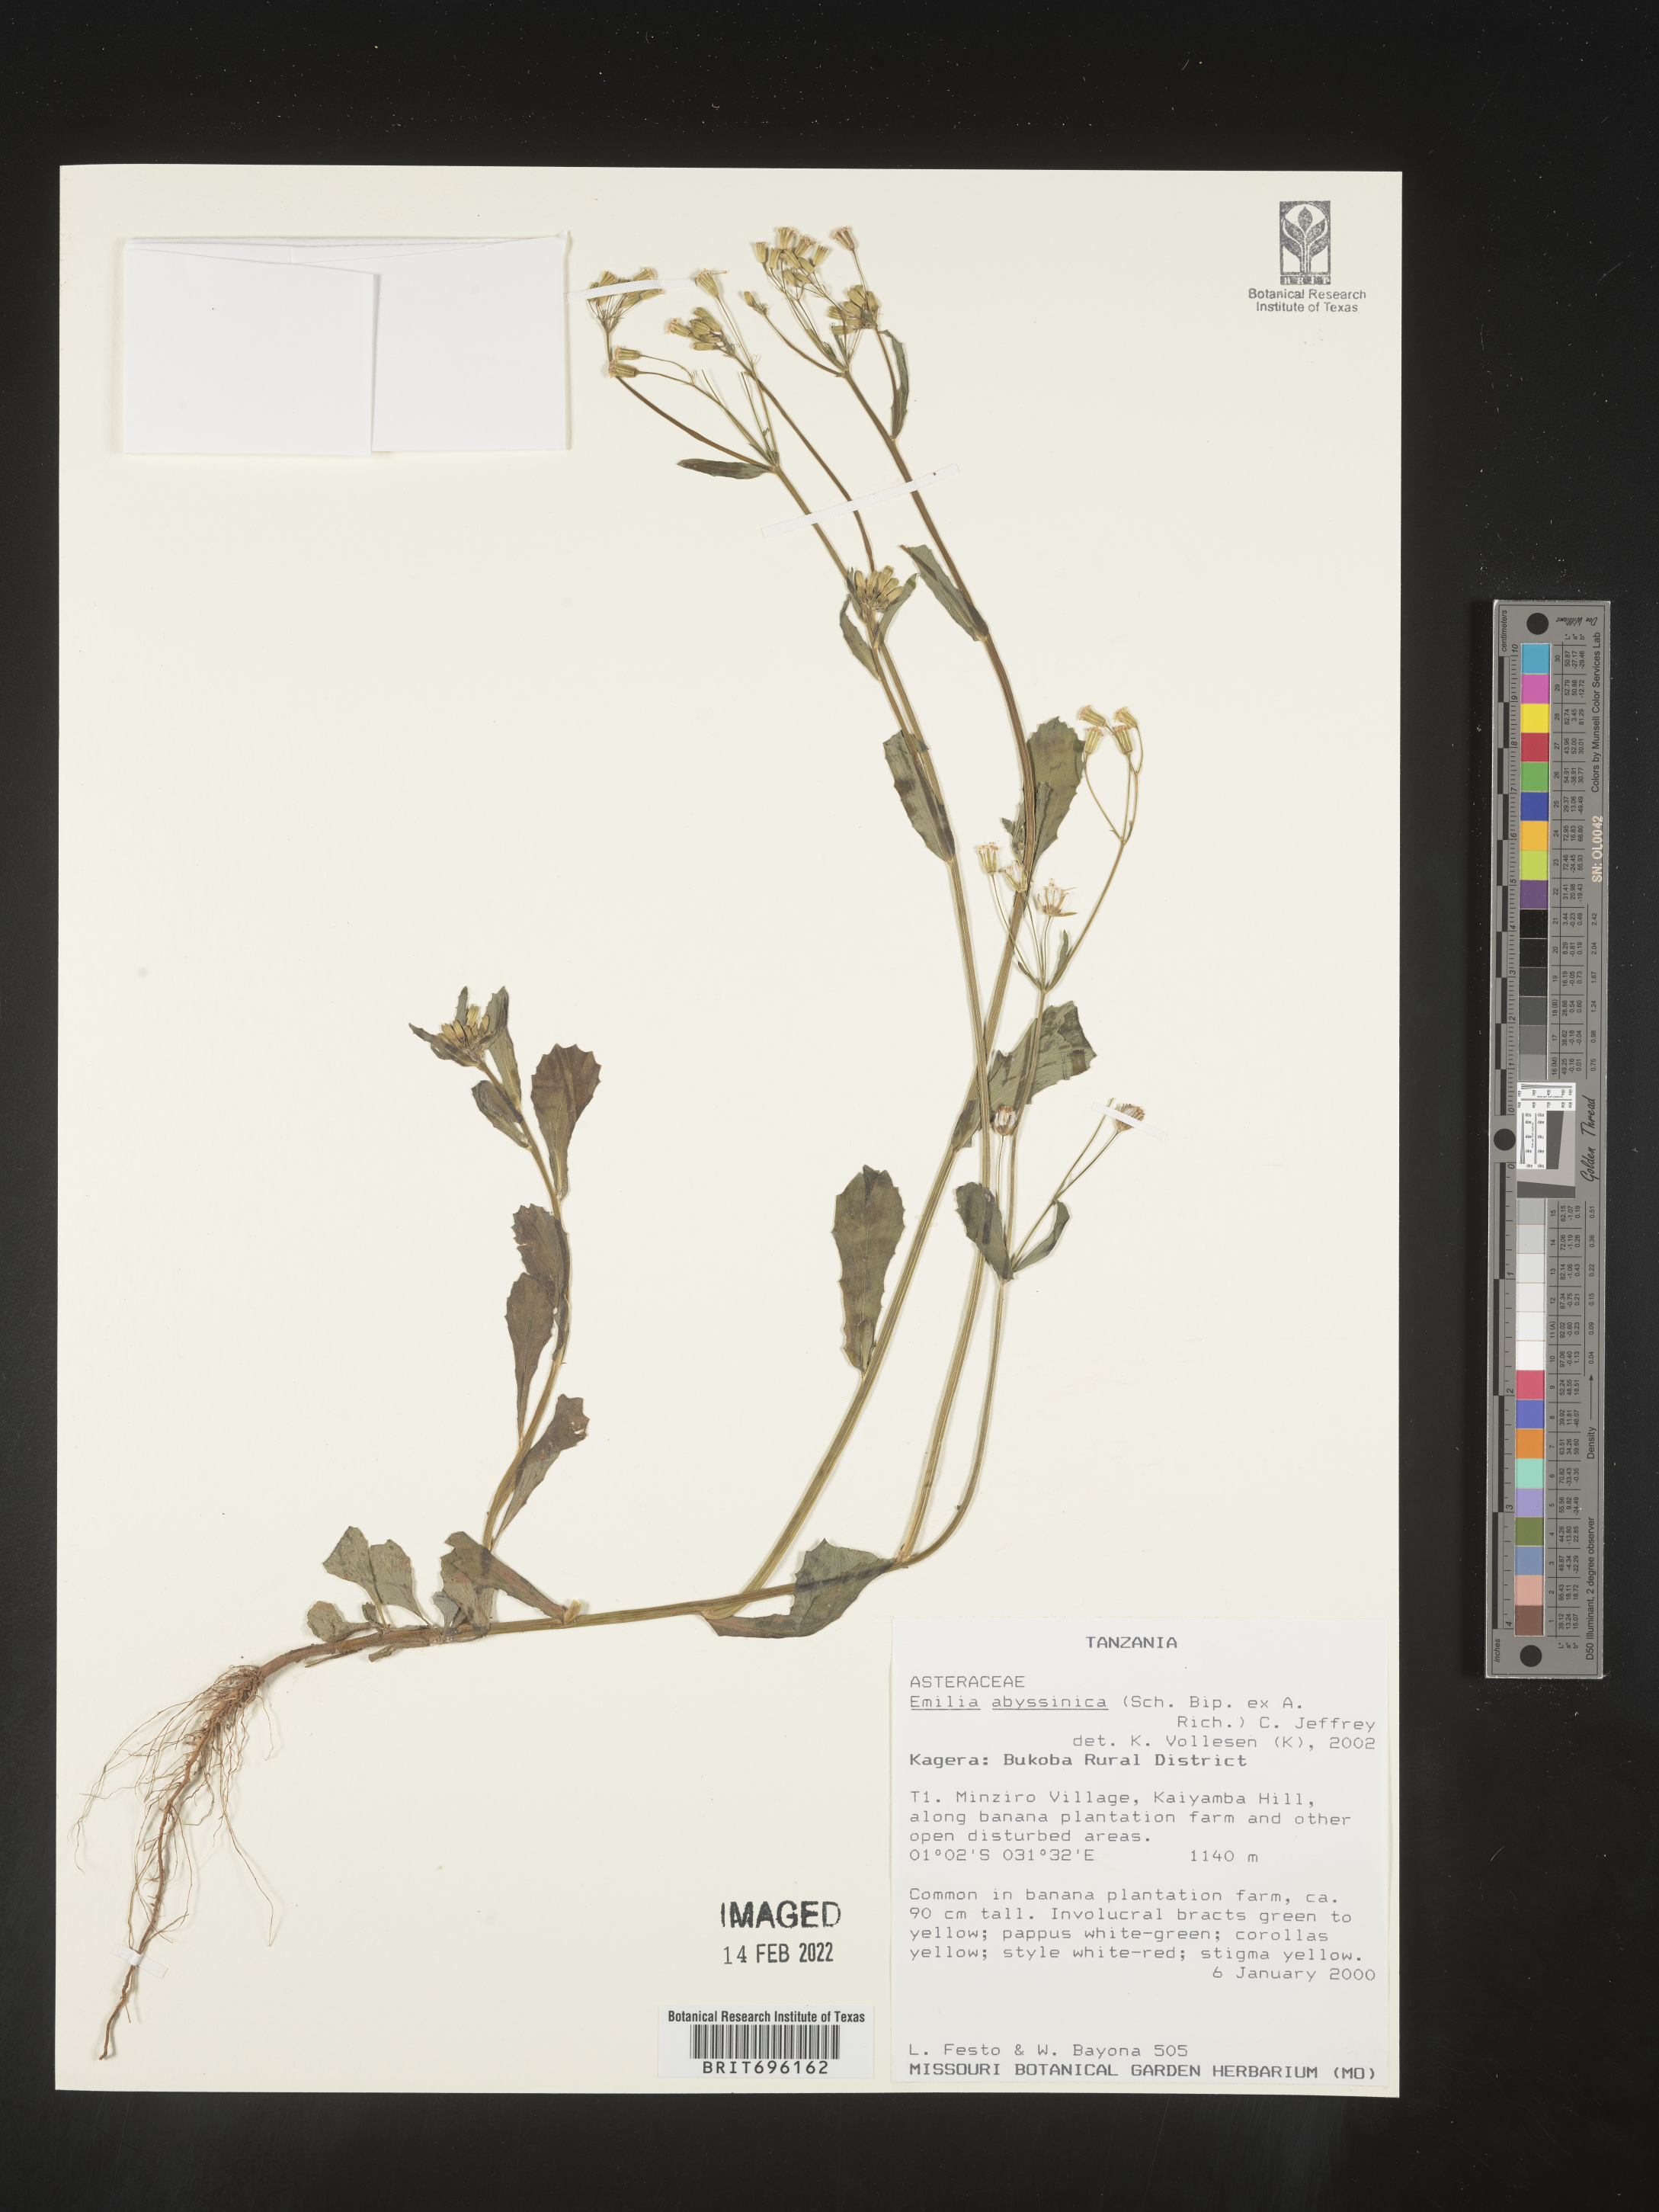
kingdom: Plantae
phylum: Tracheophyta
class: Magnoliopsida
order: Asterales
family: Asteraceae
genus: Emilia
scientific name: Emilia
